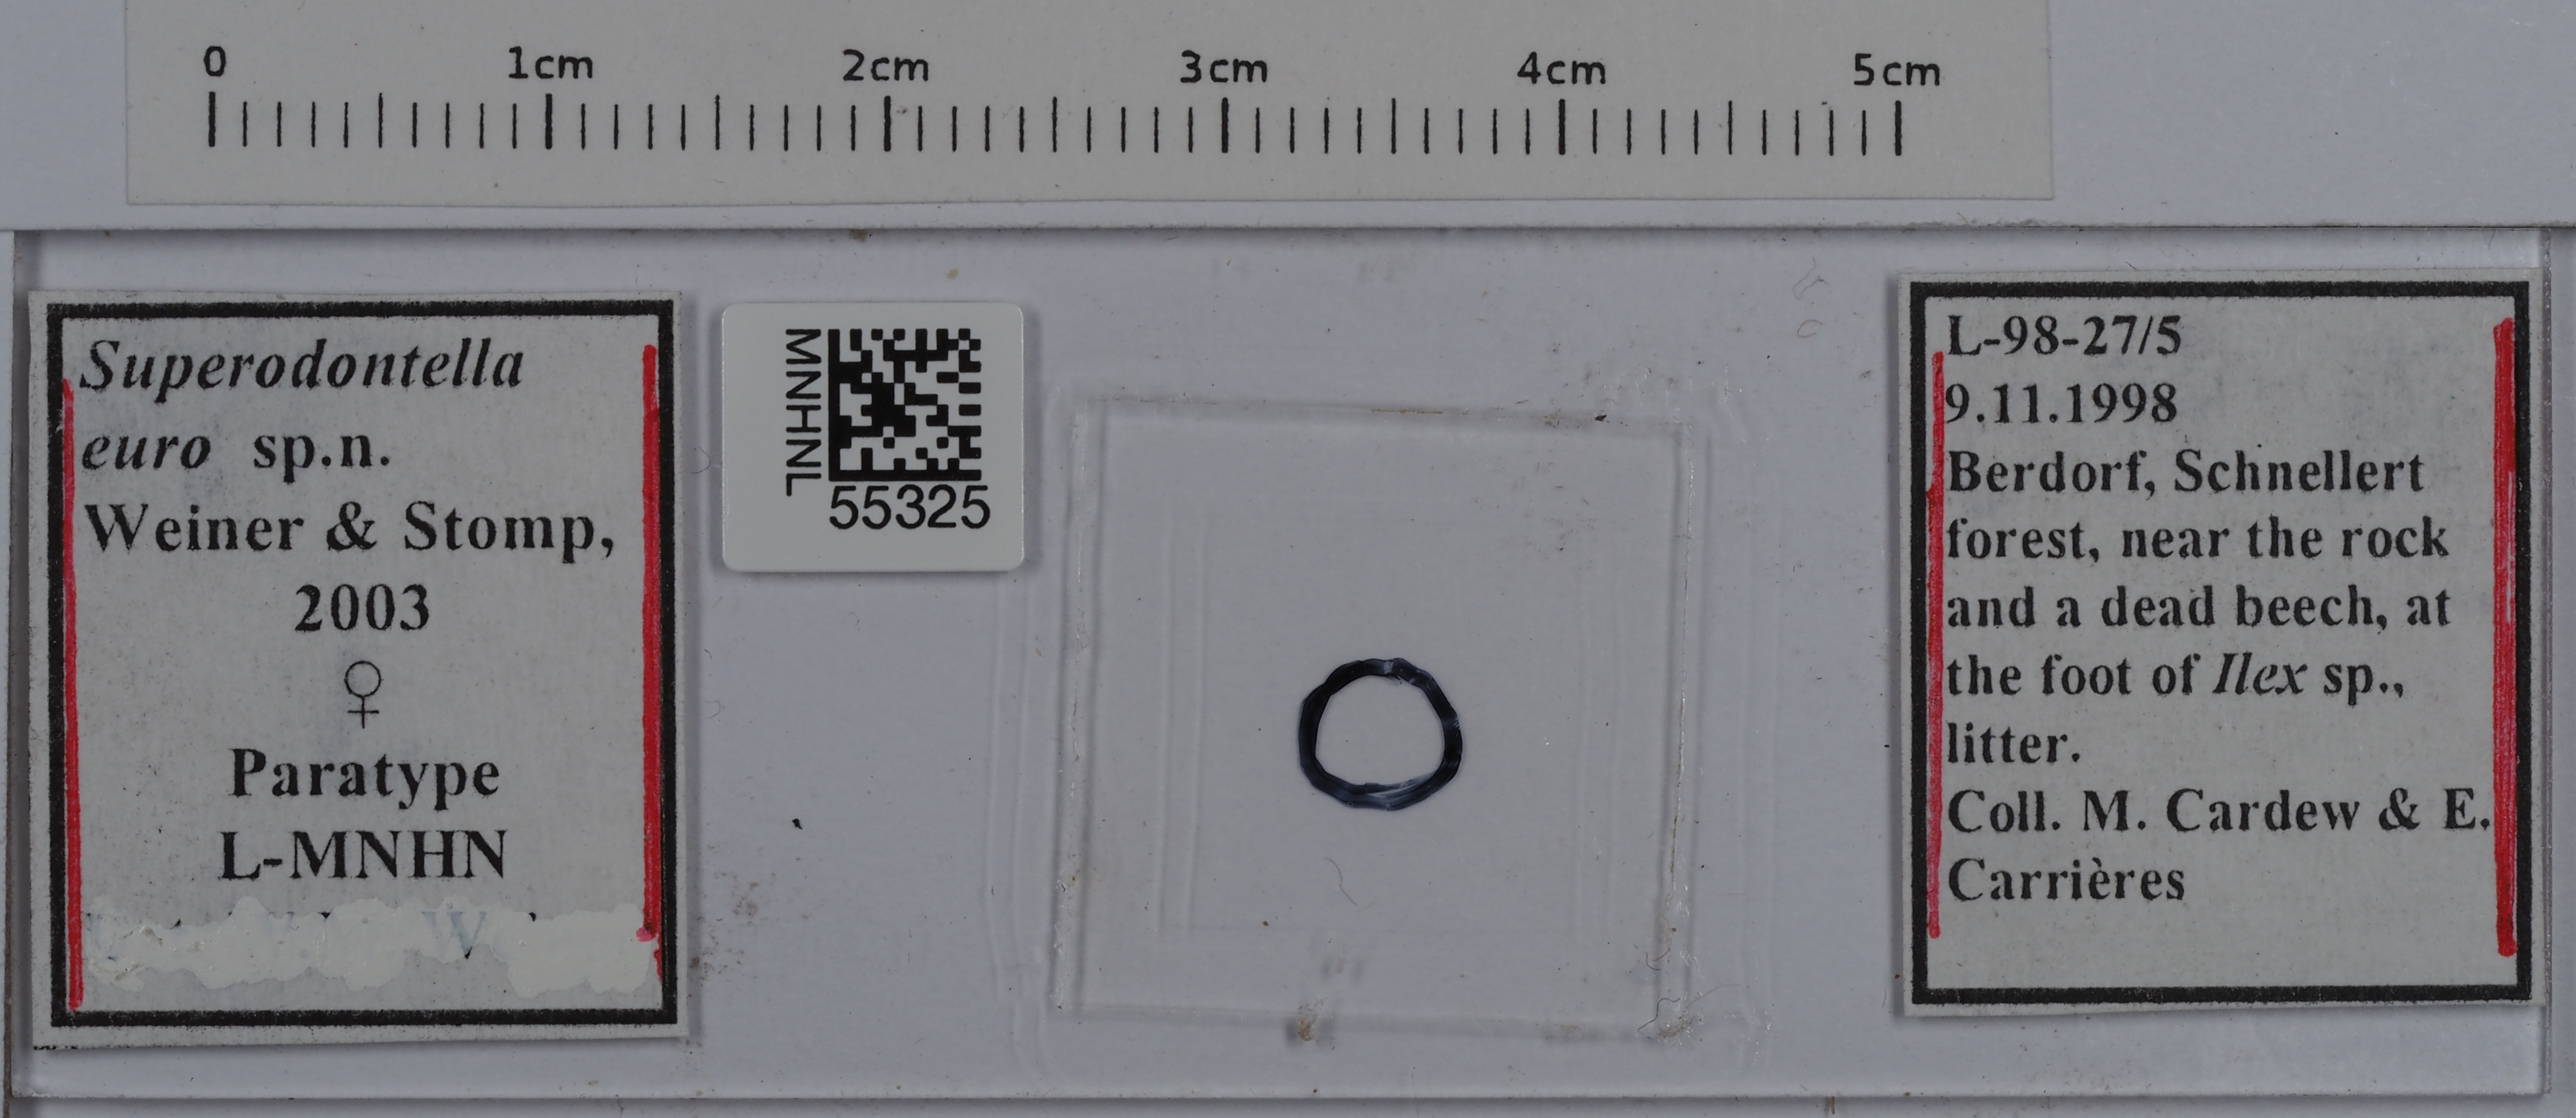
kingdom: Animalia
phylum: Arthropoda
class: Collembola
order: Poduromorpha
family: Odontellidae
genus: Superodontella
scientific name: Superodontella euro
